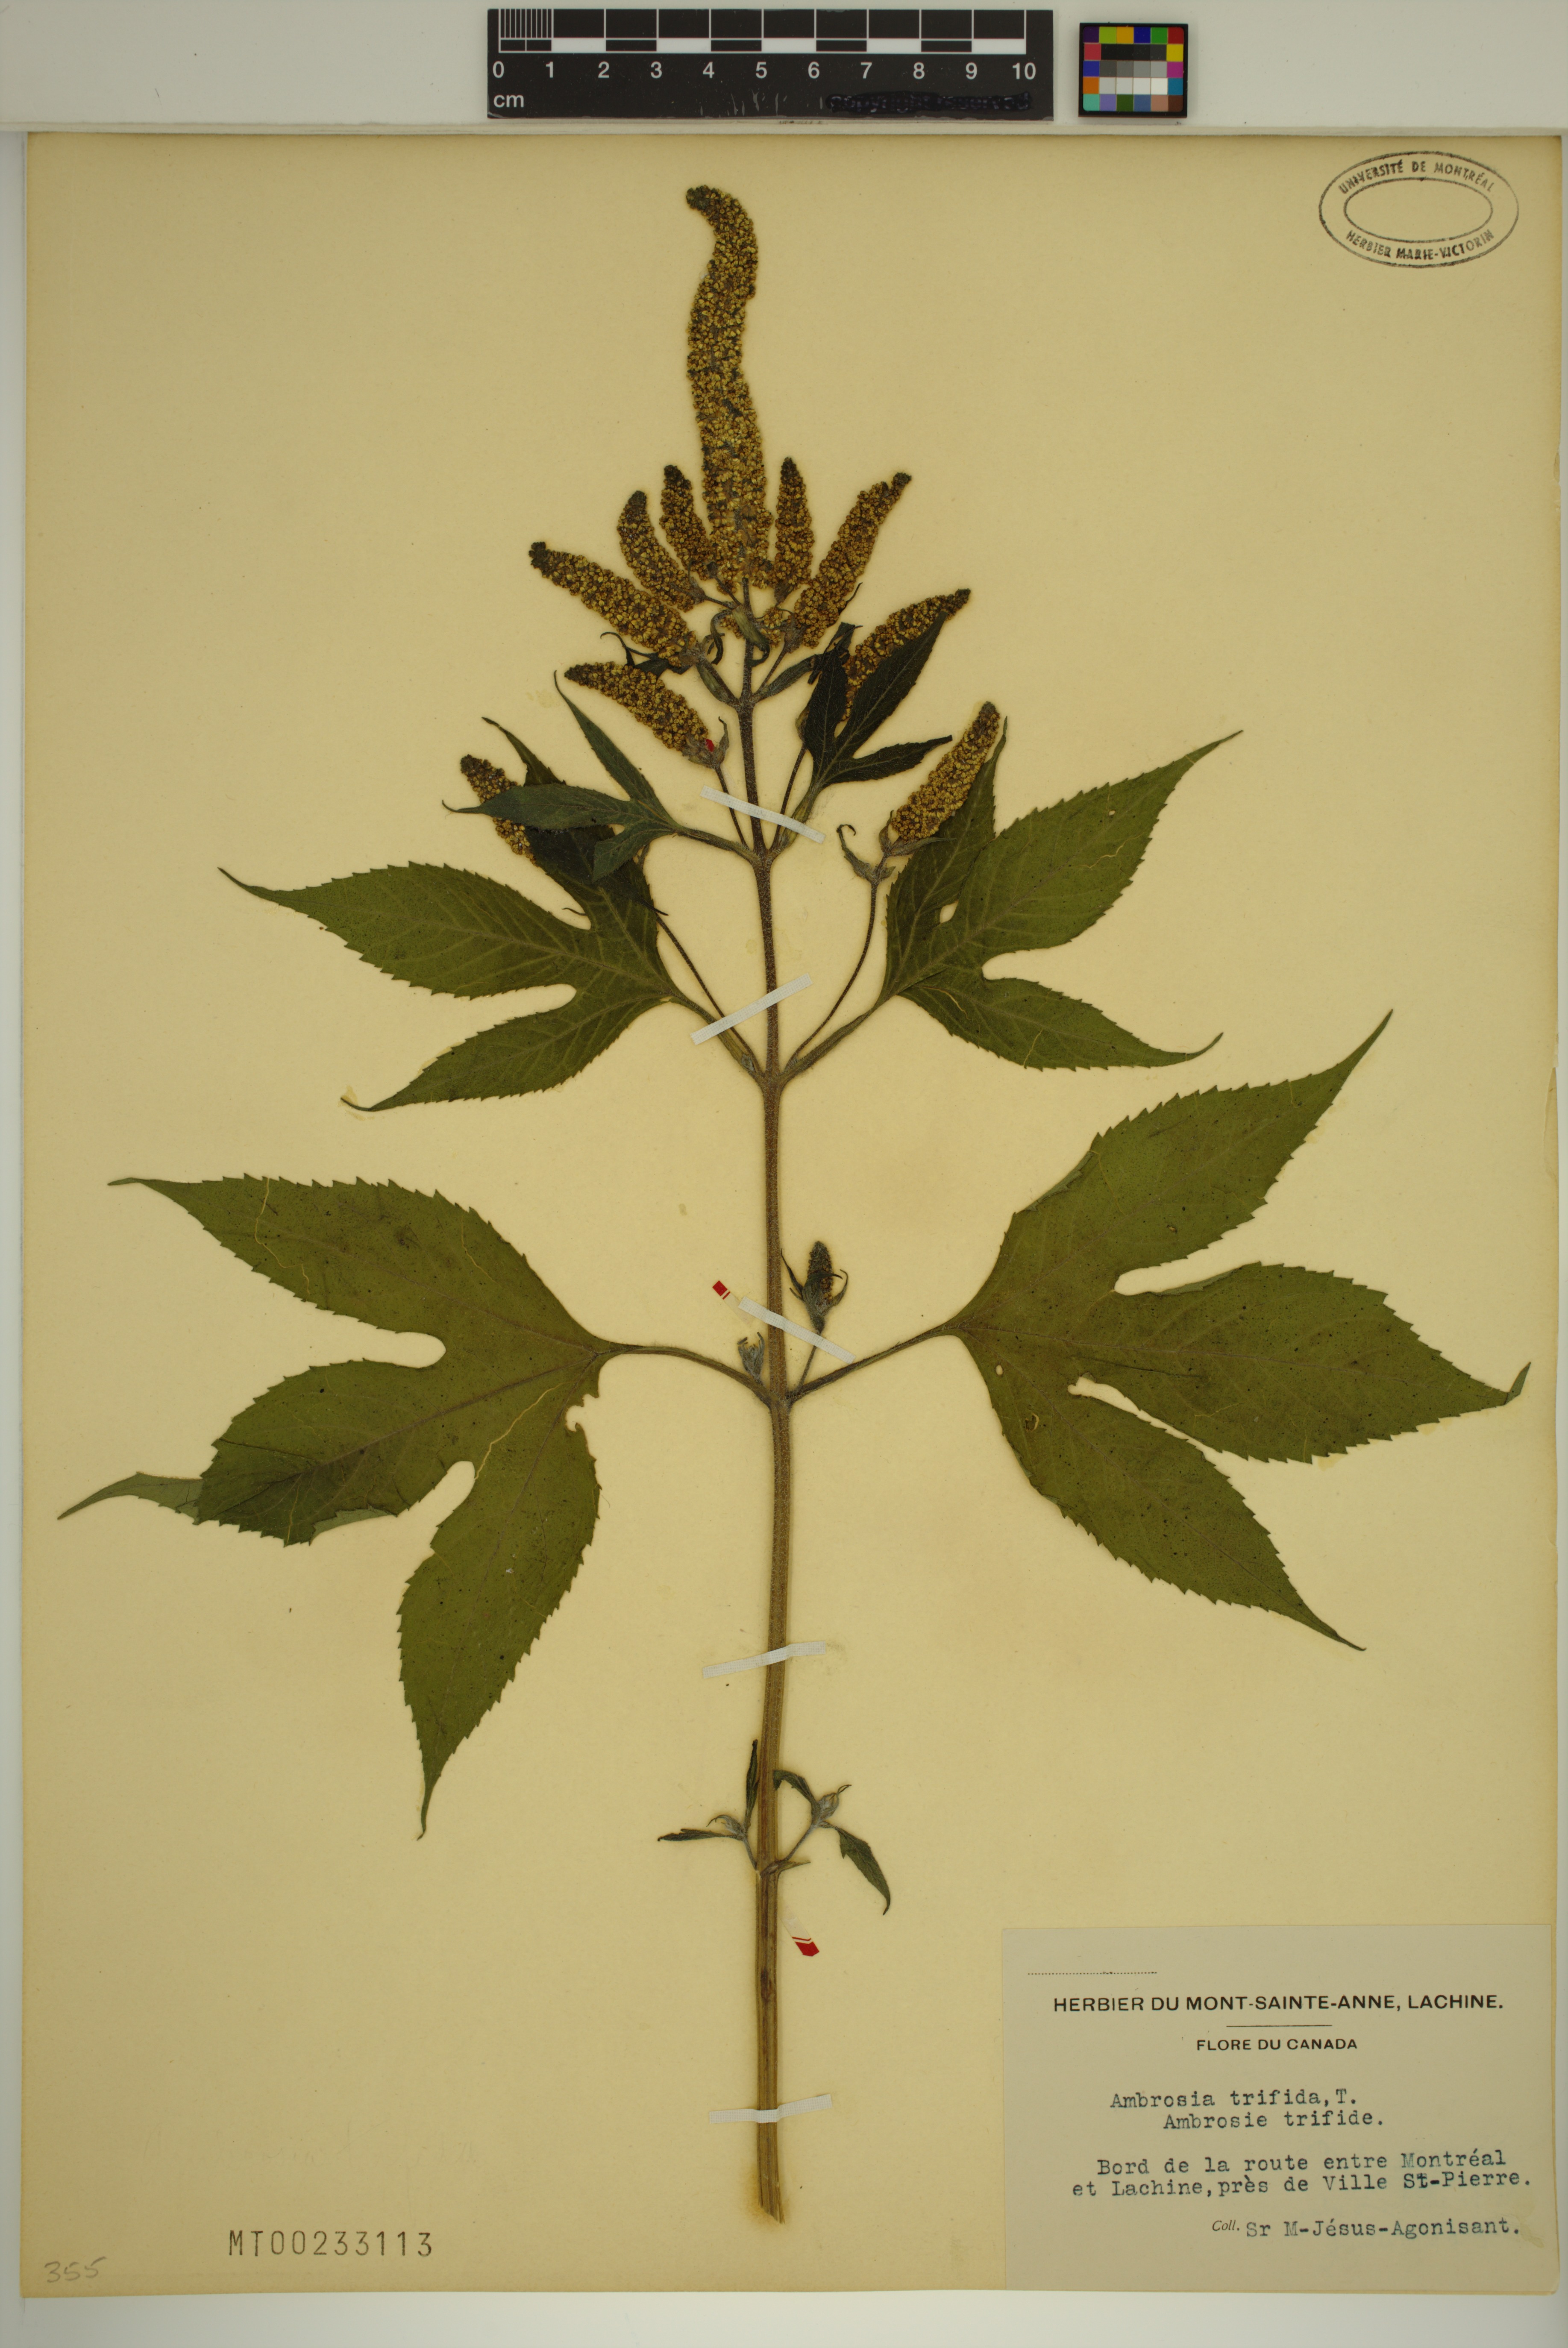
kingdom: Plantae
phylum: Tracheophyta
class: Magnoliopsida
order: Asterales
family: Asteraceae
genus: Ambrosia
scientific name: Ambrosia trifida
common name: Giant ragweed
